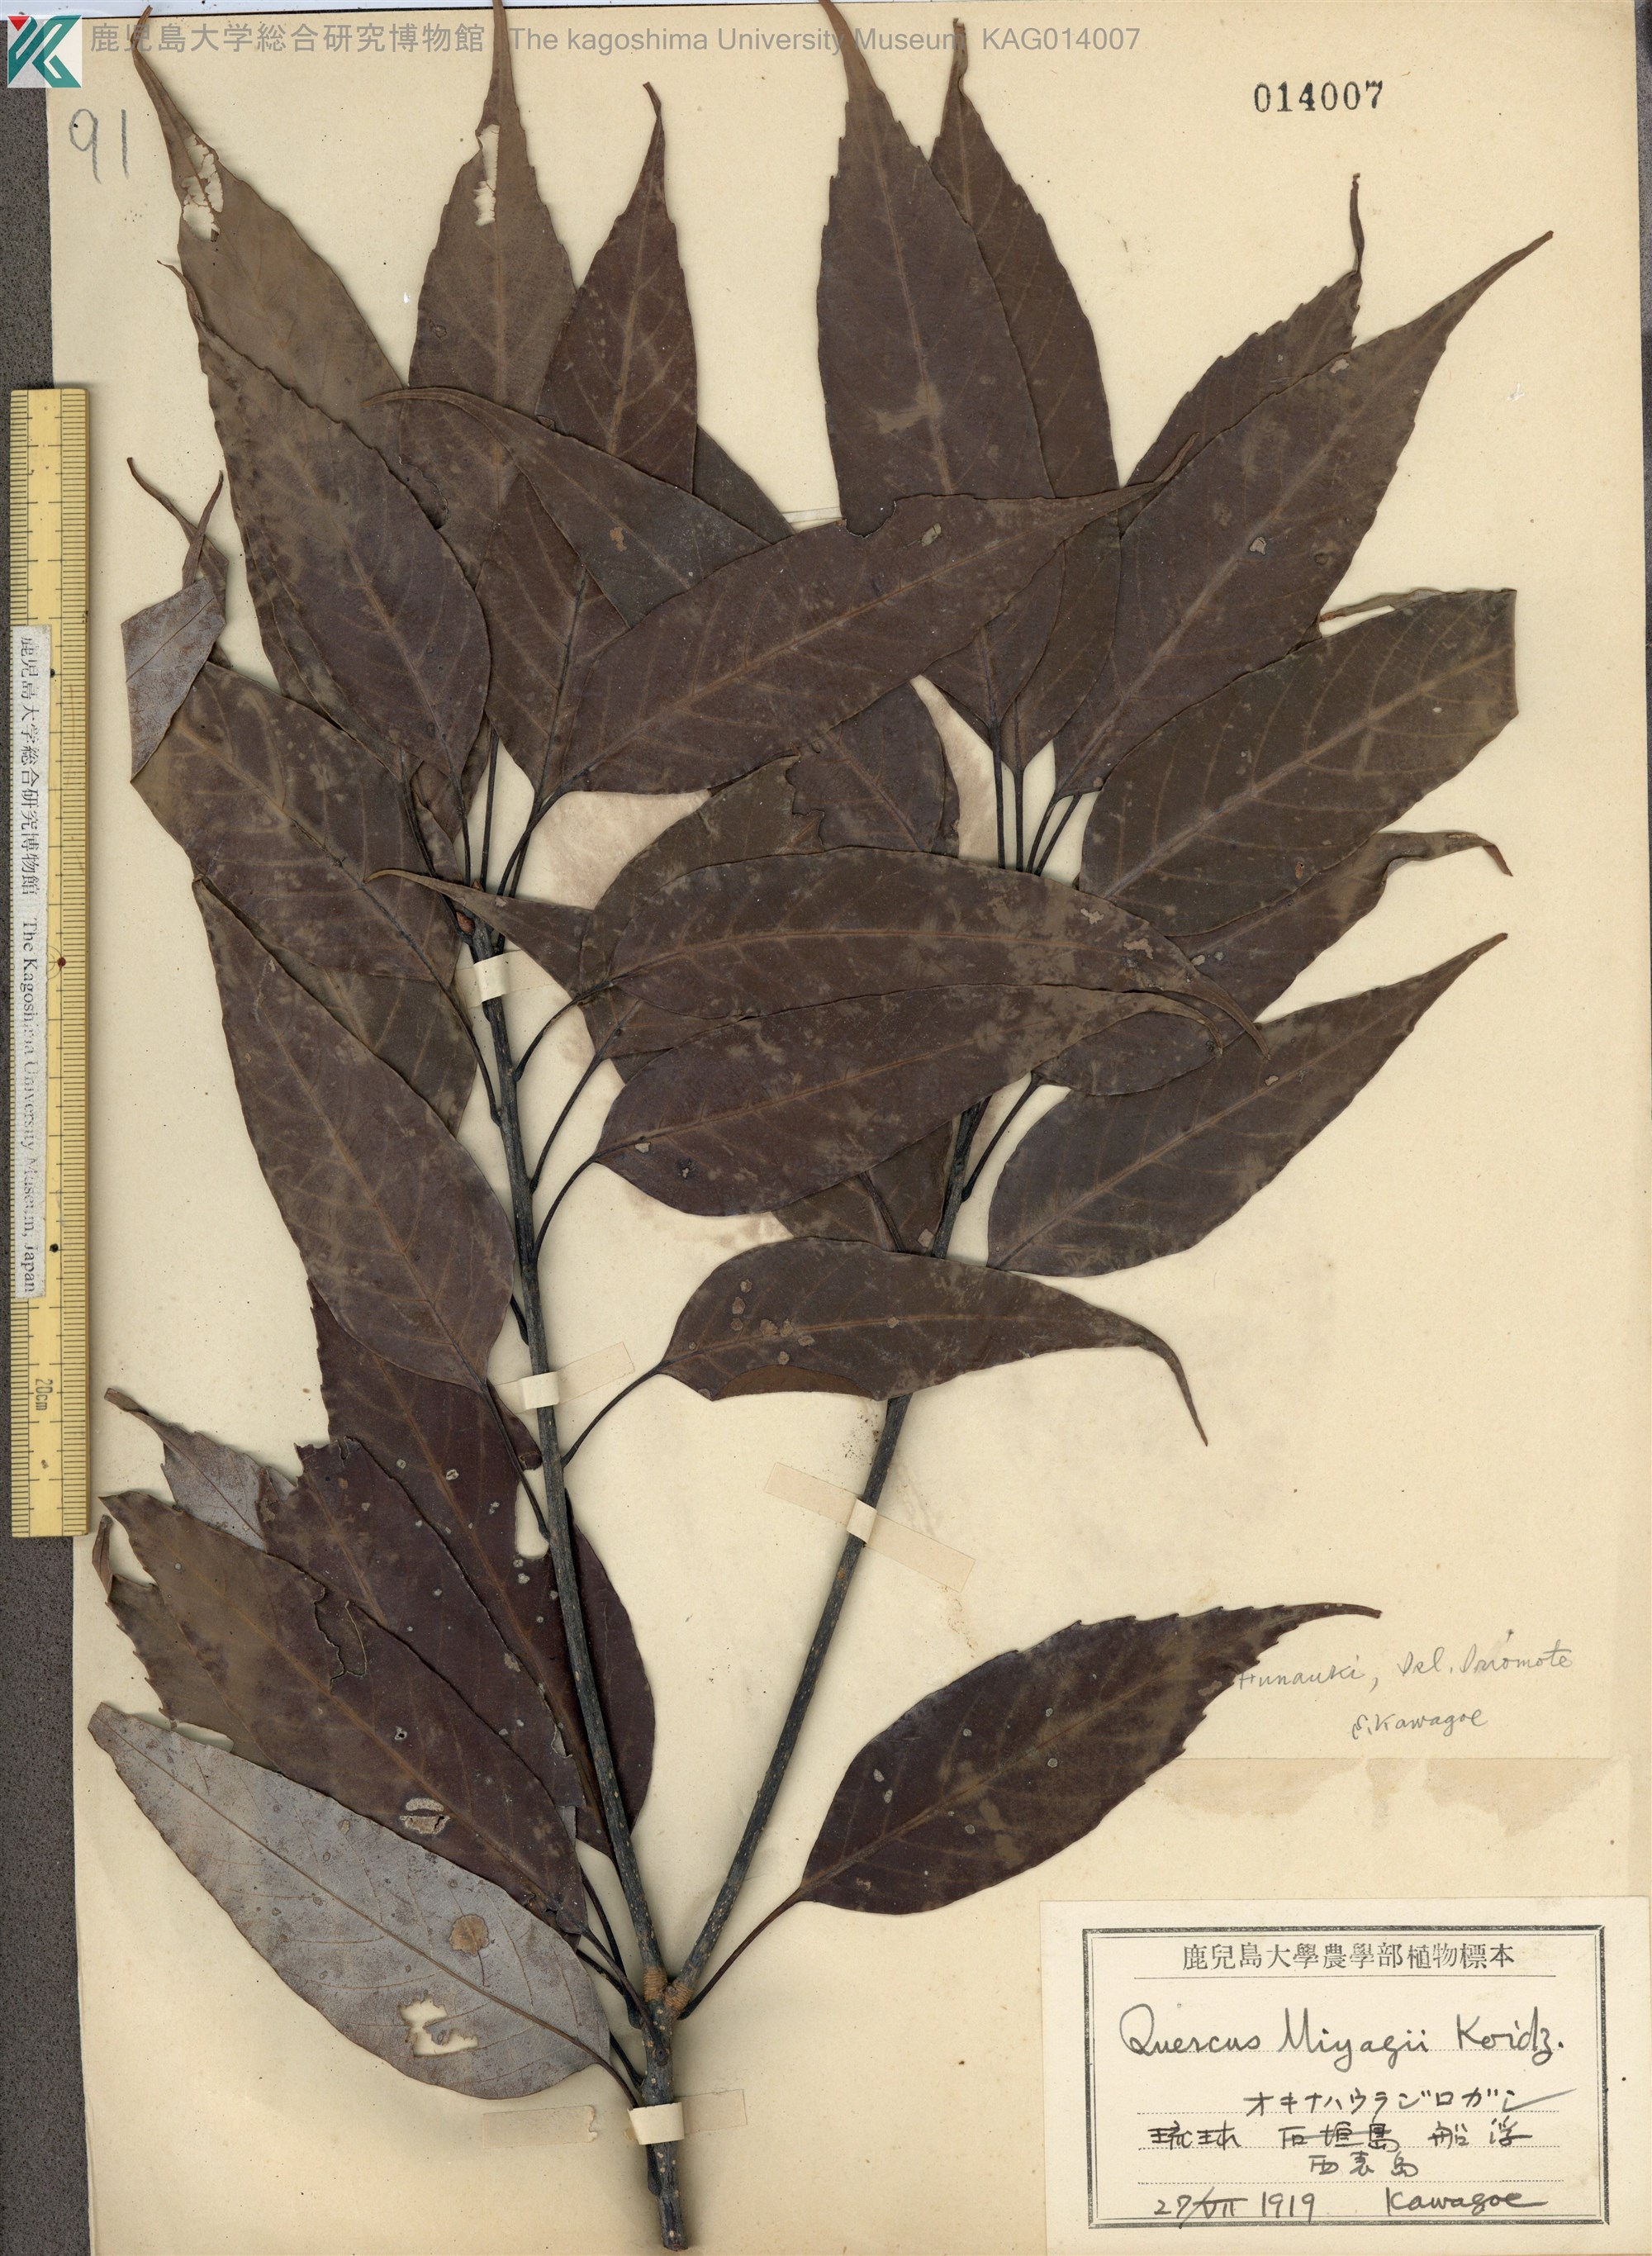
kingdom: Plantae
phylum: Tracheophyta
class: Magnoliopsida
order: Fagales
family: Fagaceae
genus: Quercus
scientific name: Quercus miyagii
